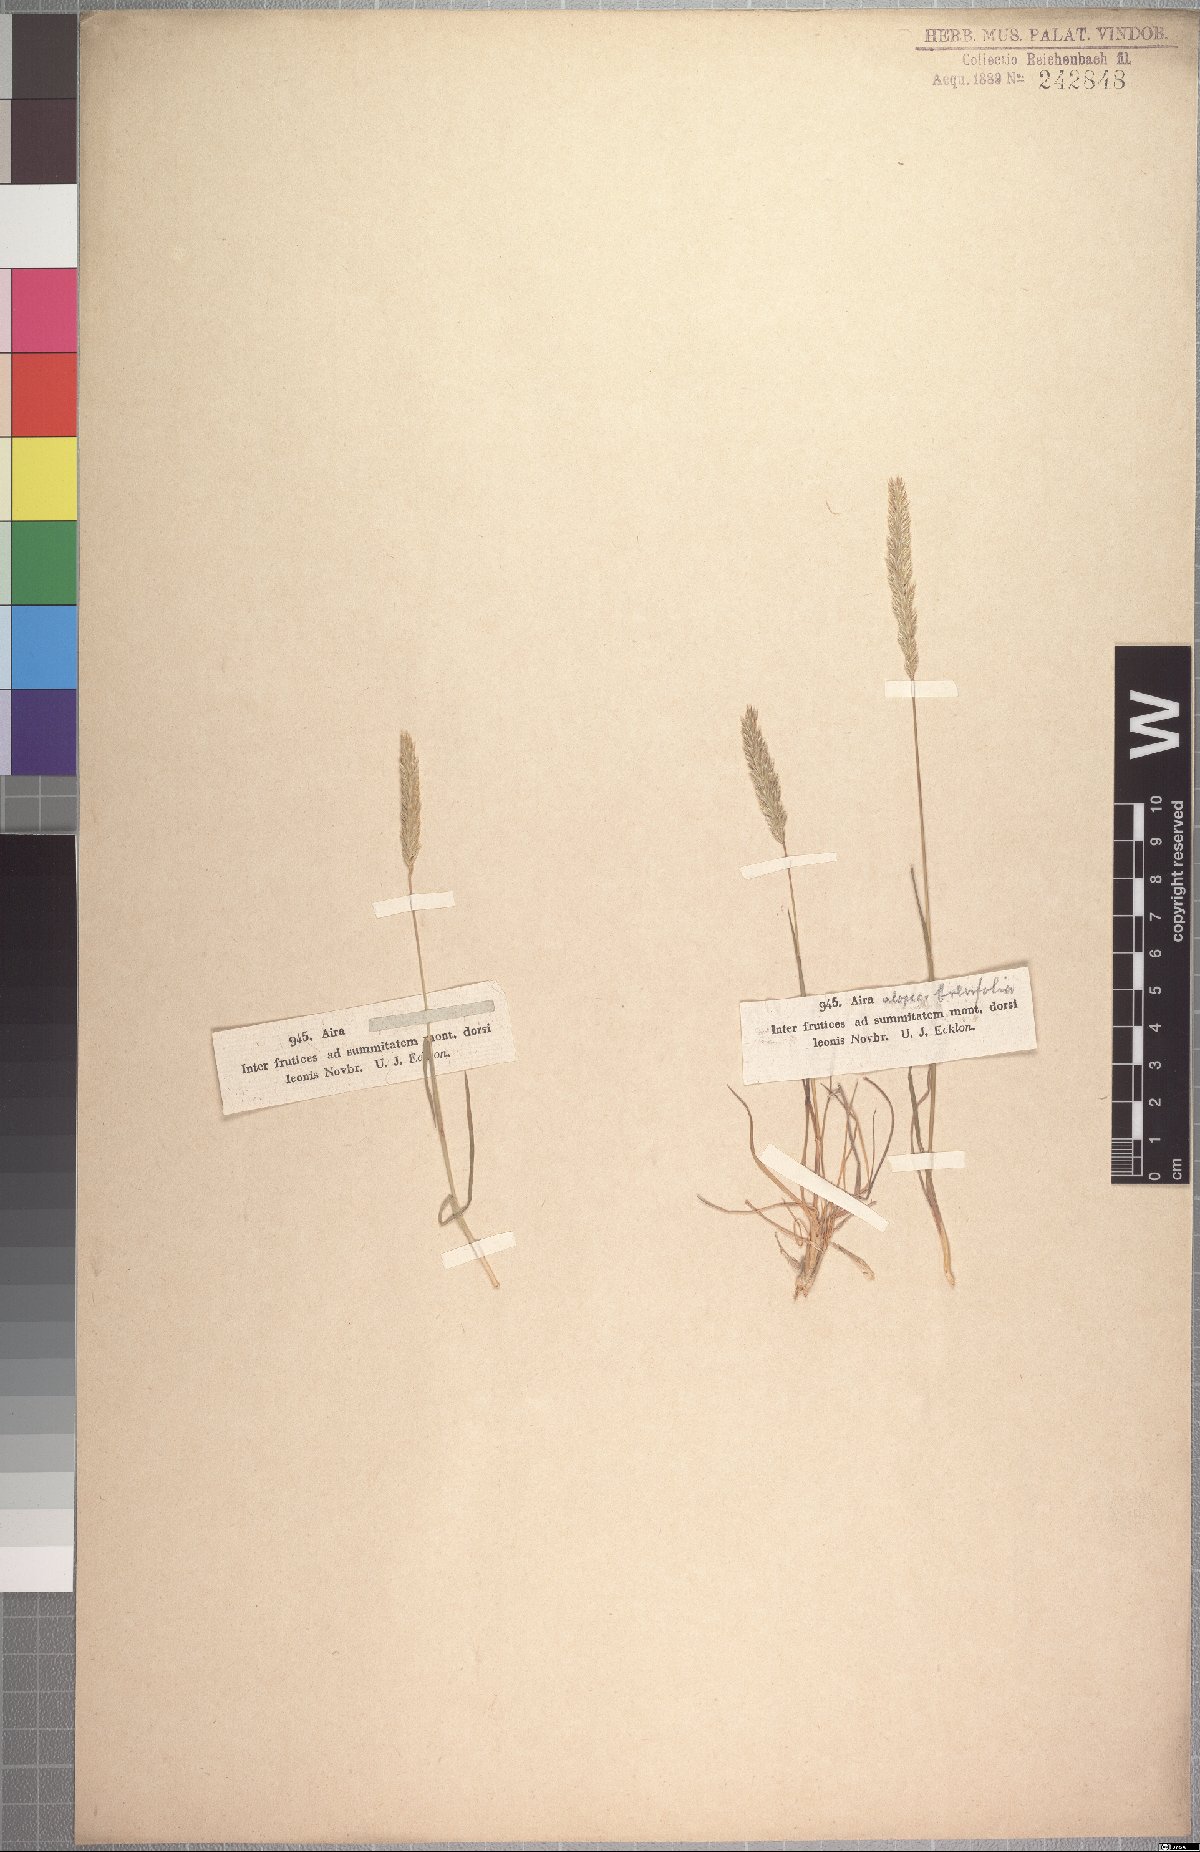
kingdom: Plantae
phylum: Tracheophyta
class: Liliopsida
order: Poales
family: Poaceae
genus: Koeleria
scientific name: Koeleria capensis
